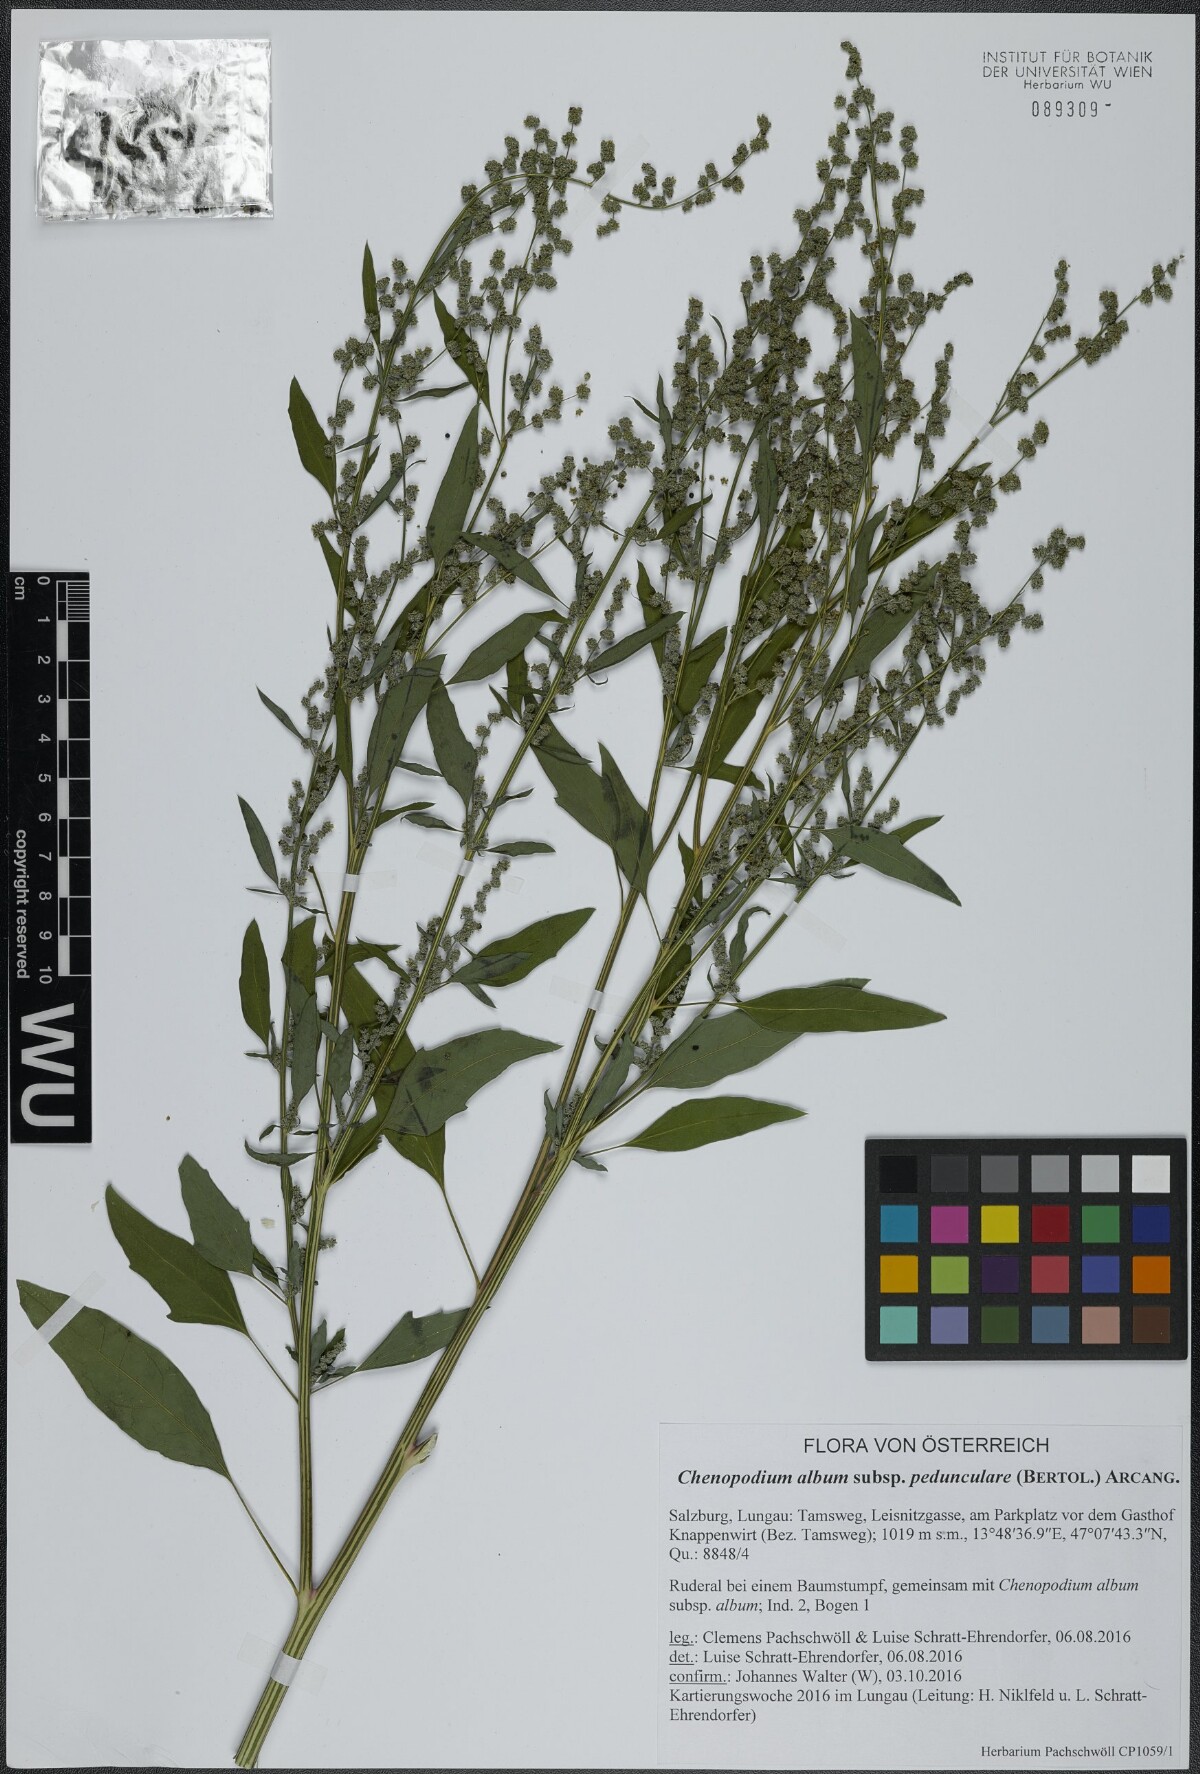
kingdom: Plantae
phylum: Tracheophyta
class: Magnoliopsida
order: Caryophyllales
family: Amaranthaceae
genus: Chenopodium
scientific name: Chenopodium album
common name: Fat-hen
